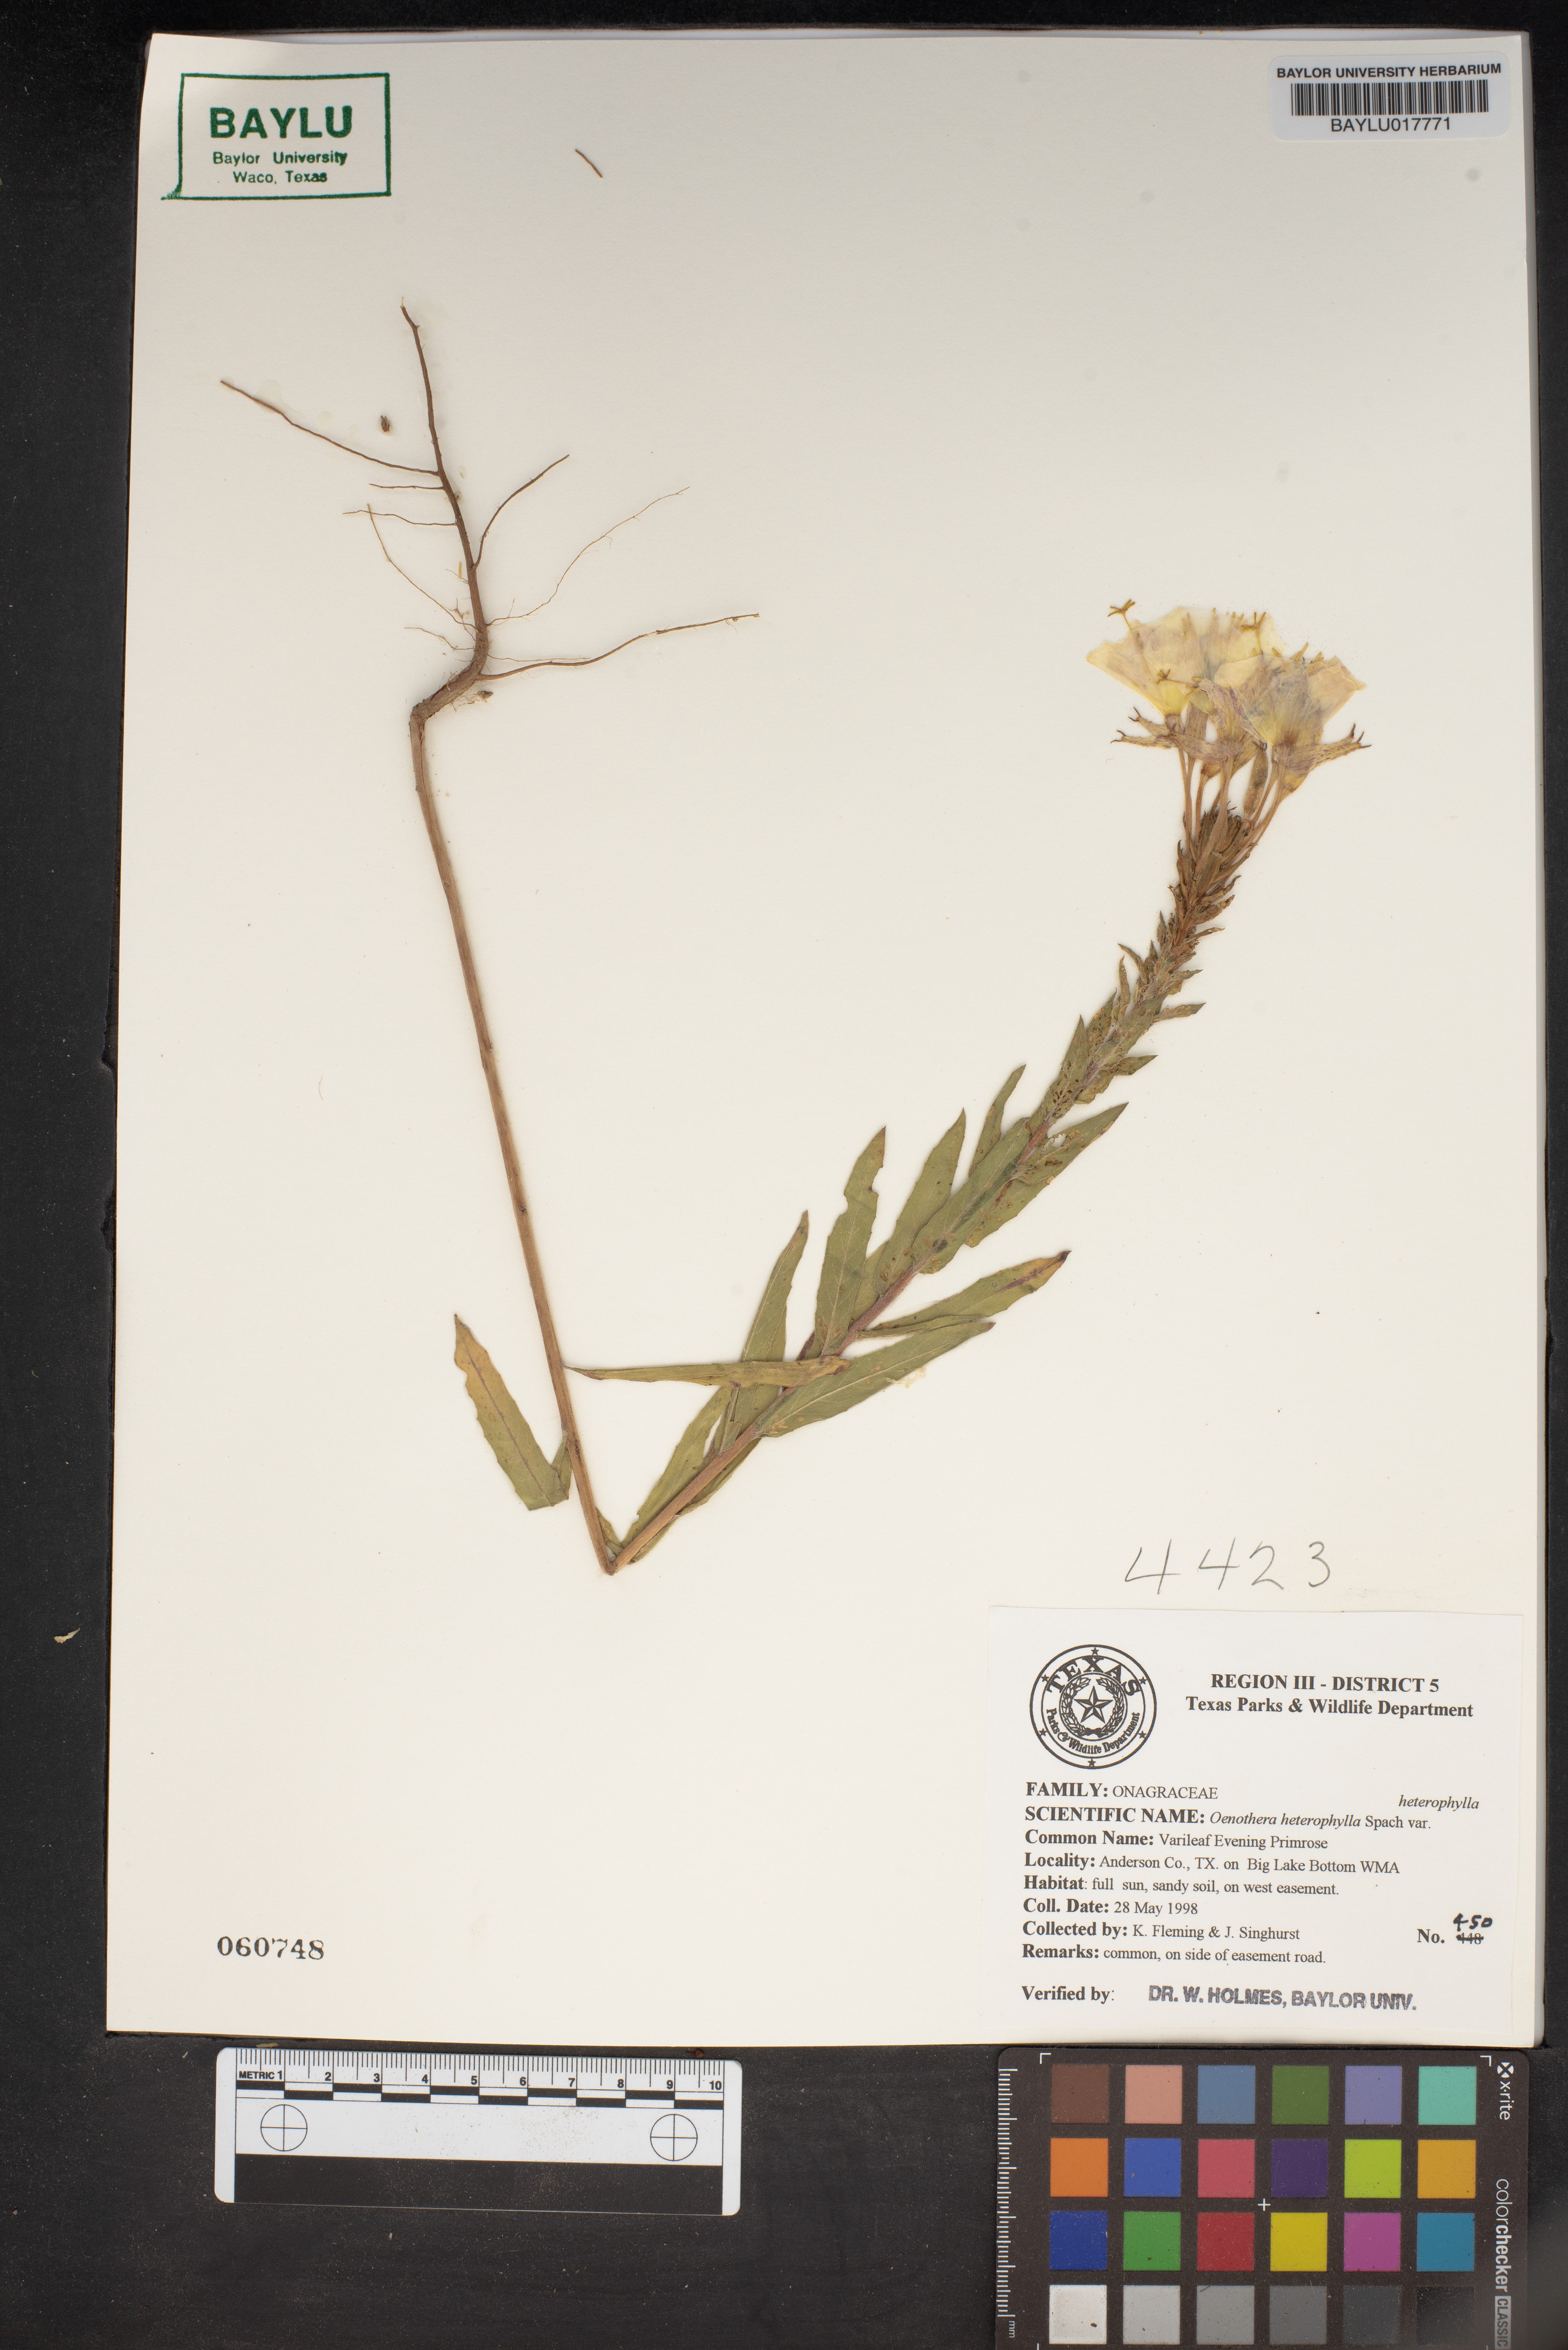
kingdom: Plantae
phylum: Tracheophyta
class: Magnoliopsida
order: Myrtales
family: Onagraceae
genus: Camissonia
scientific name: Camissonia dentata
